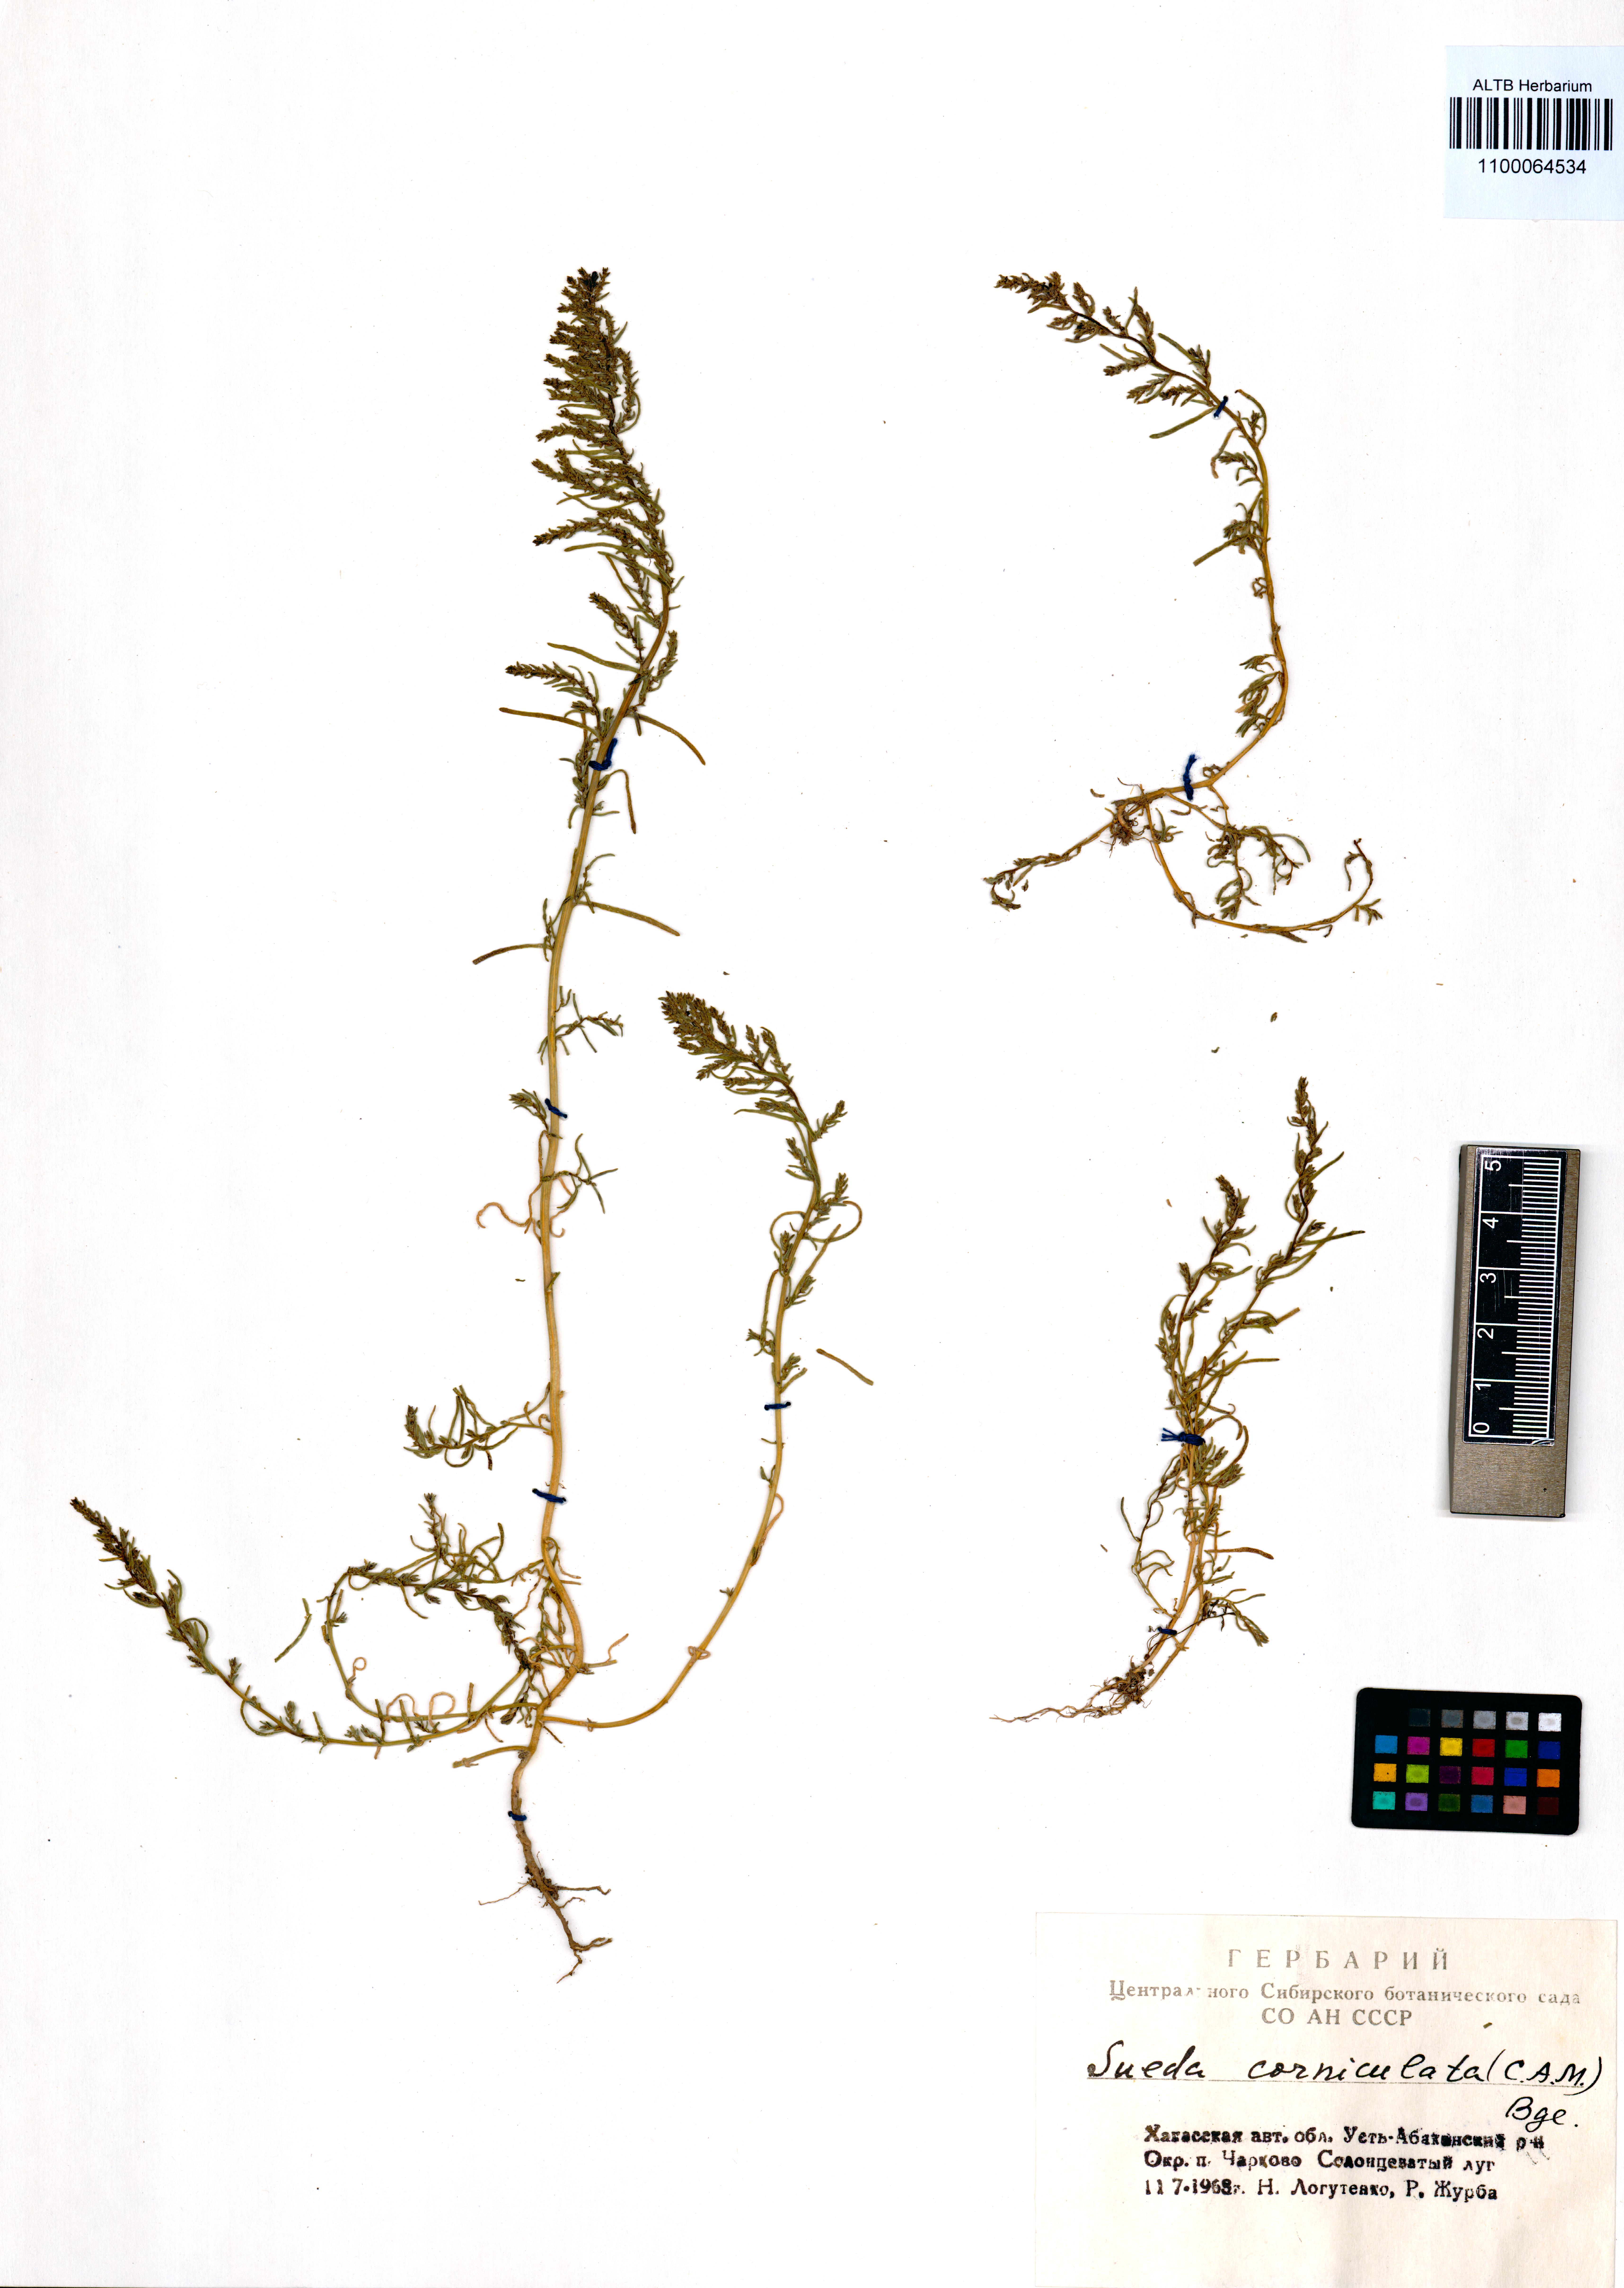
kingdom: Plantae
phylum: Tracheophyta
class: Magnoliopsida
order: Caryophyllales
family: Amaranthaceae
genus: Suaeda
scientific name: Suaeda corniculata
